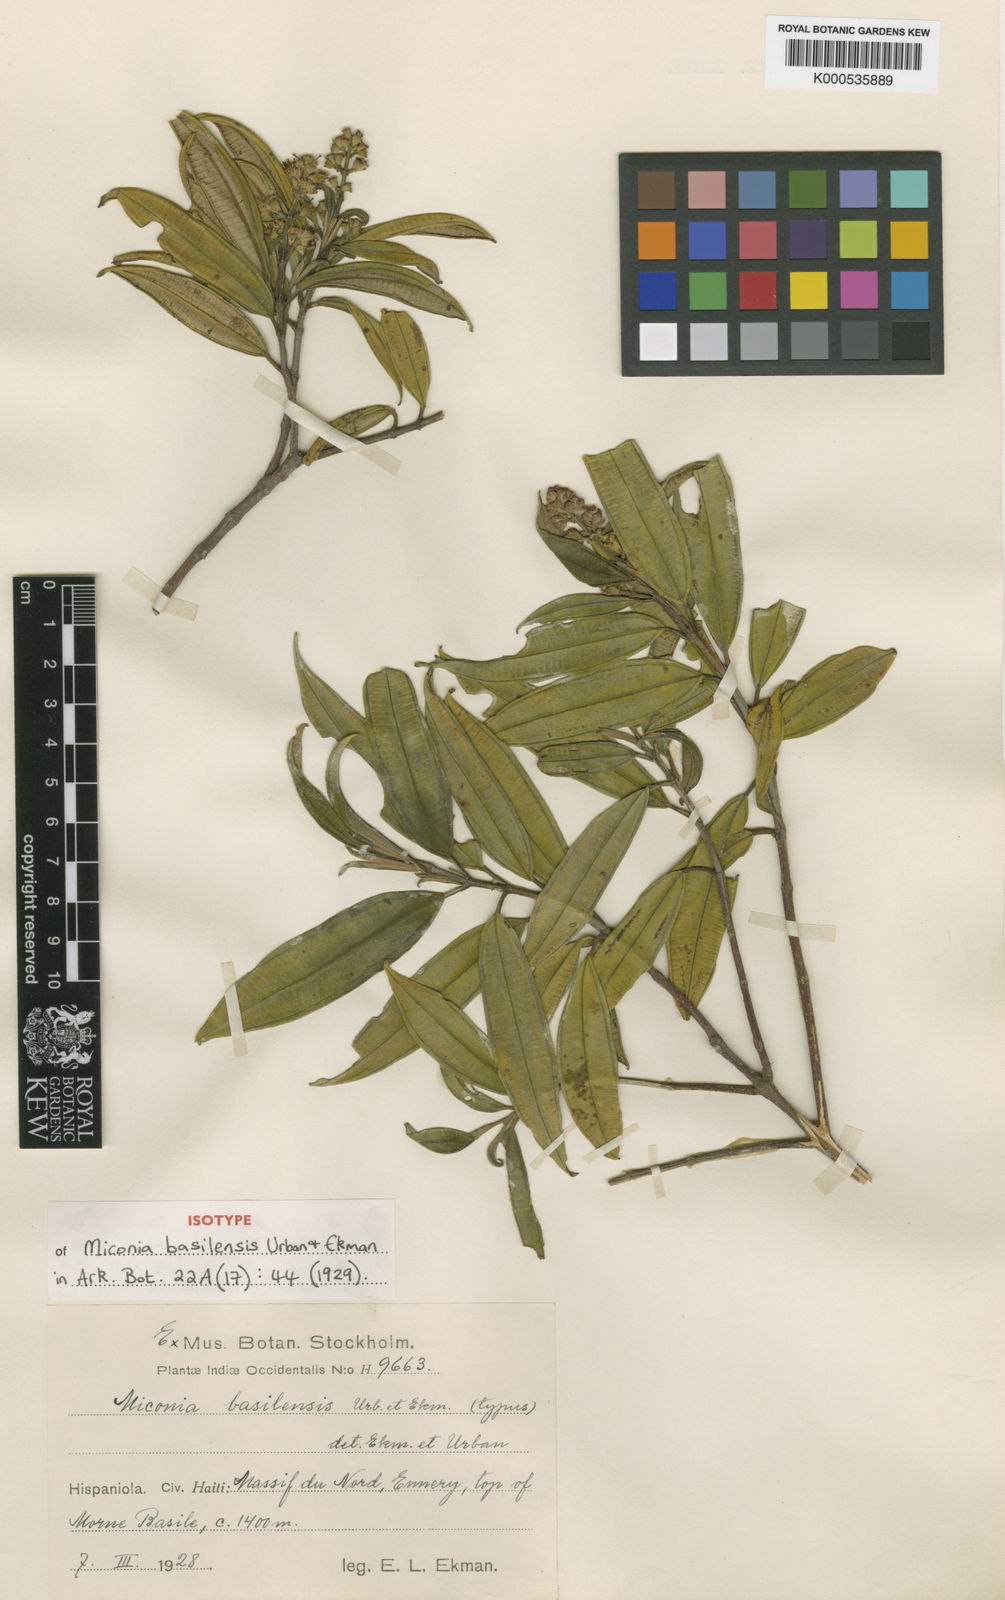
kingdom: Plantae
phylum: Tracheophyta
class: Magnoliopsida
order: Myrtales
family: Melastomataceae
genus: Miconia
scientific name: Miconia basilensis
